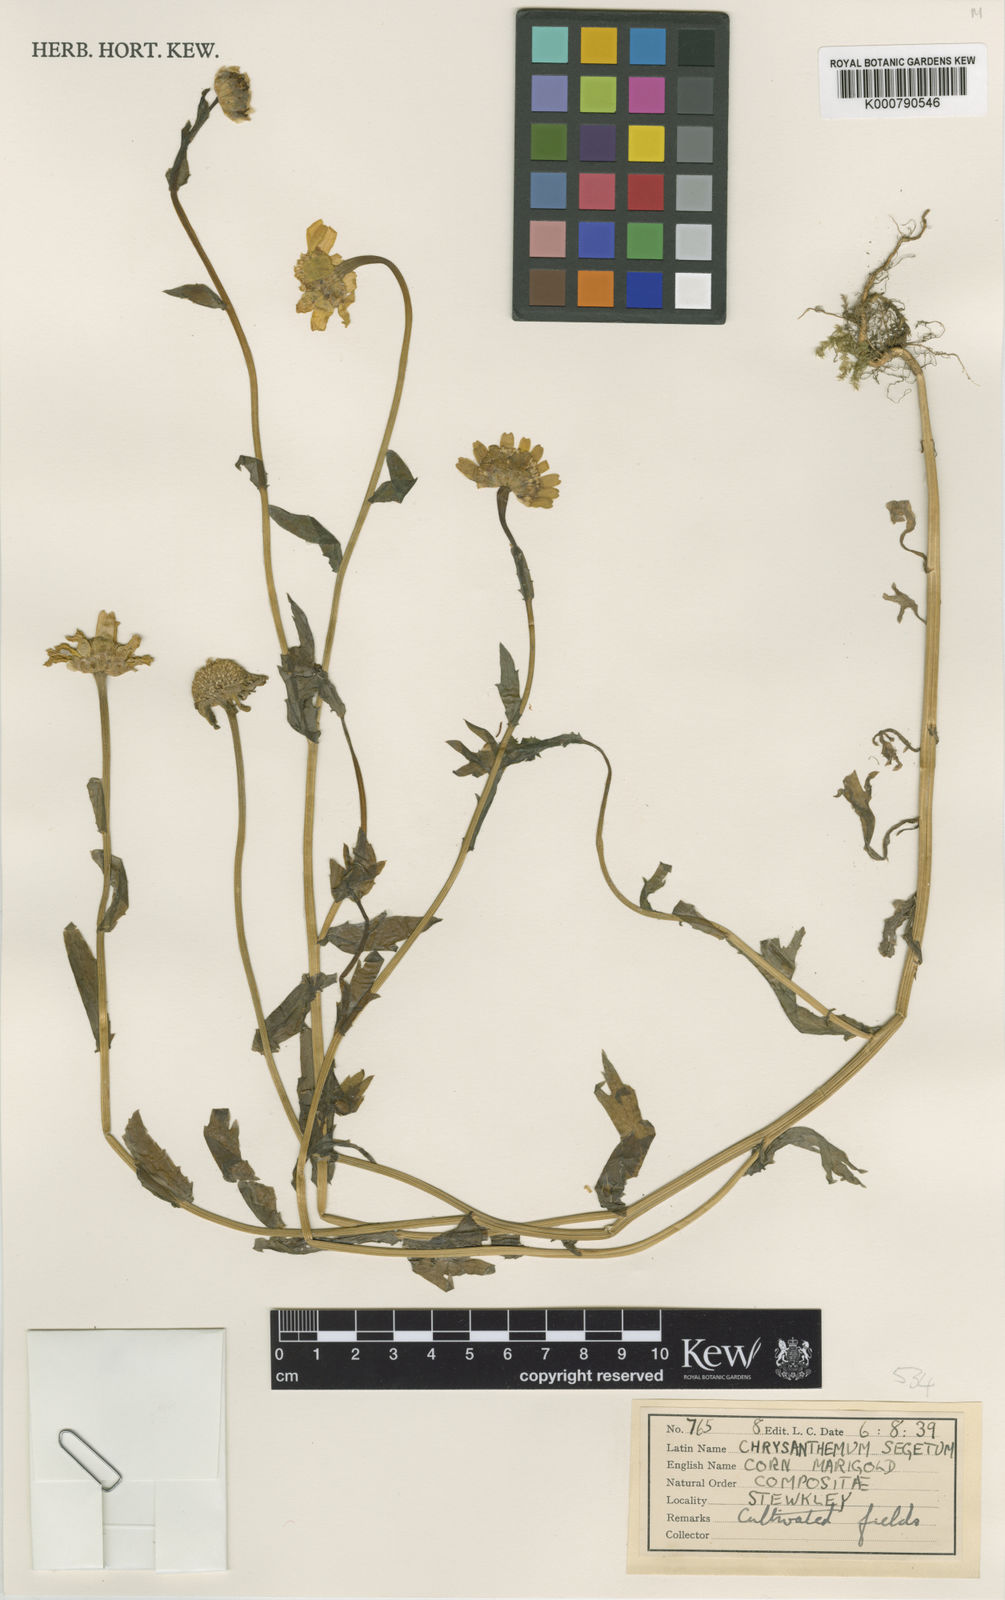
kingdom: Plantae
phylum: Tracheophyta
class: Magnoliopsida
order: Asterales
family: Asteraceae
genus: Glebionis
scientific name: Glebionis
